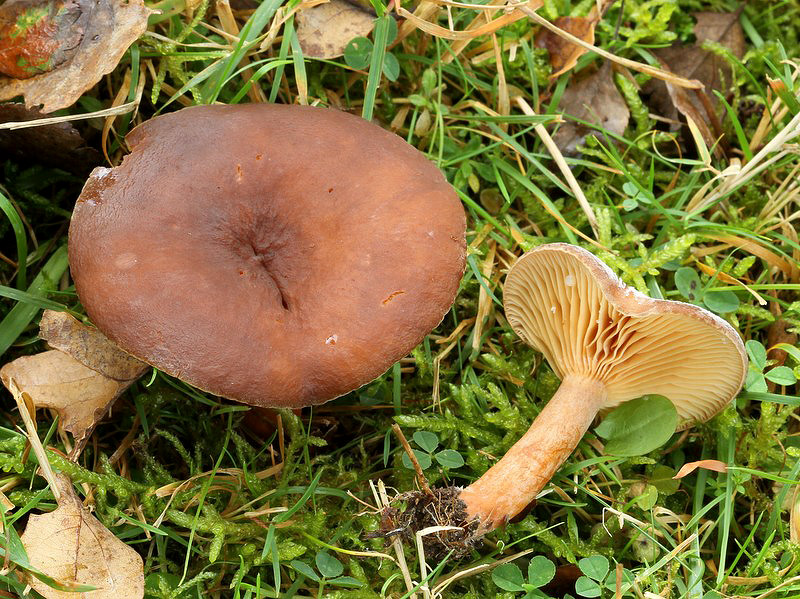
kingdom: Fungi
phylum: Basidiomycota
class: Agaricomycetes
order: Russulales
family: Russulaceae
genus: Lactarius
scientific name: Lactarius serifluus
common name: tæge-mælkehat
